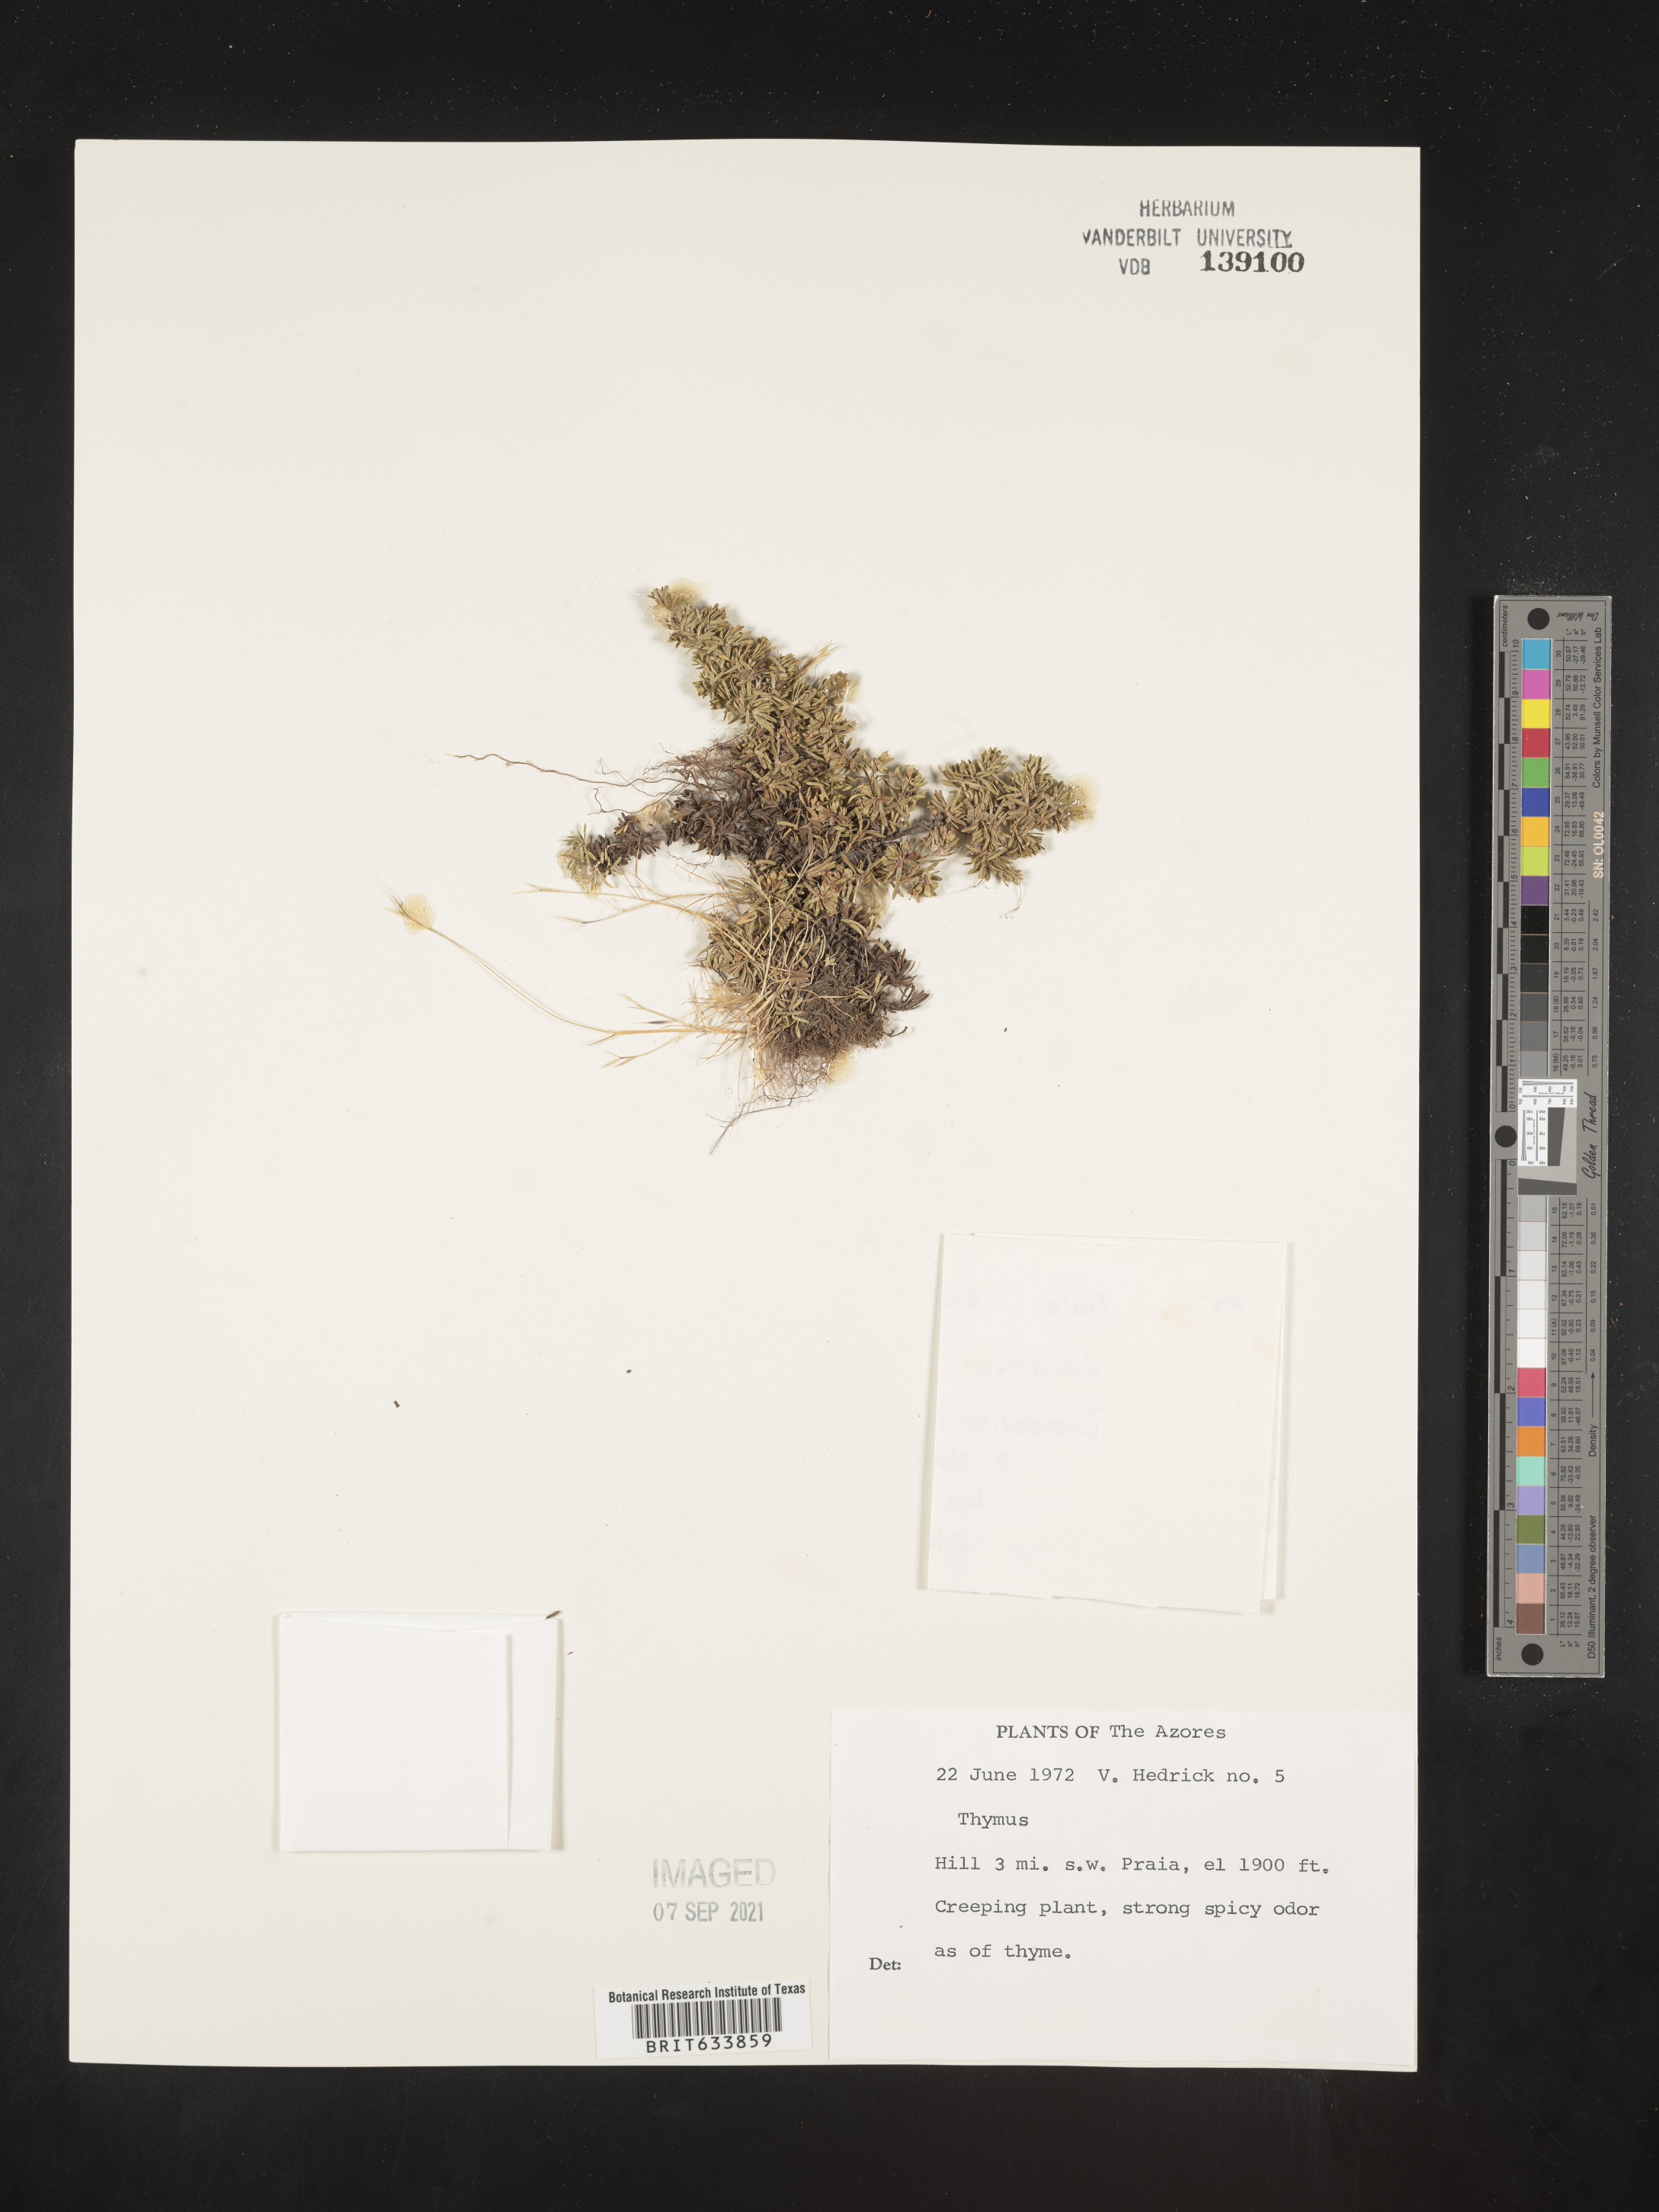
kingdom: Plantae
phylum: Tracheophyta
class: Magnoliopsida
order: Lamiales
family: Lamiaceae
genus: Thymus
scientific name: Thymus
